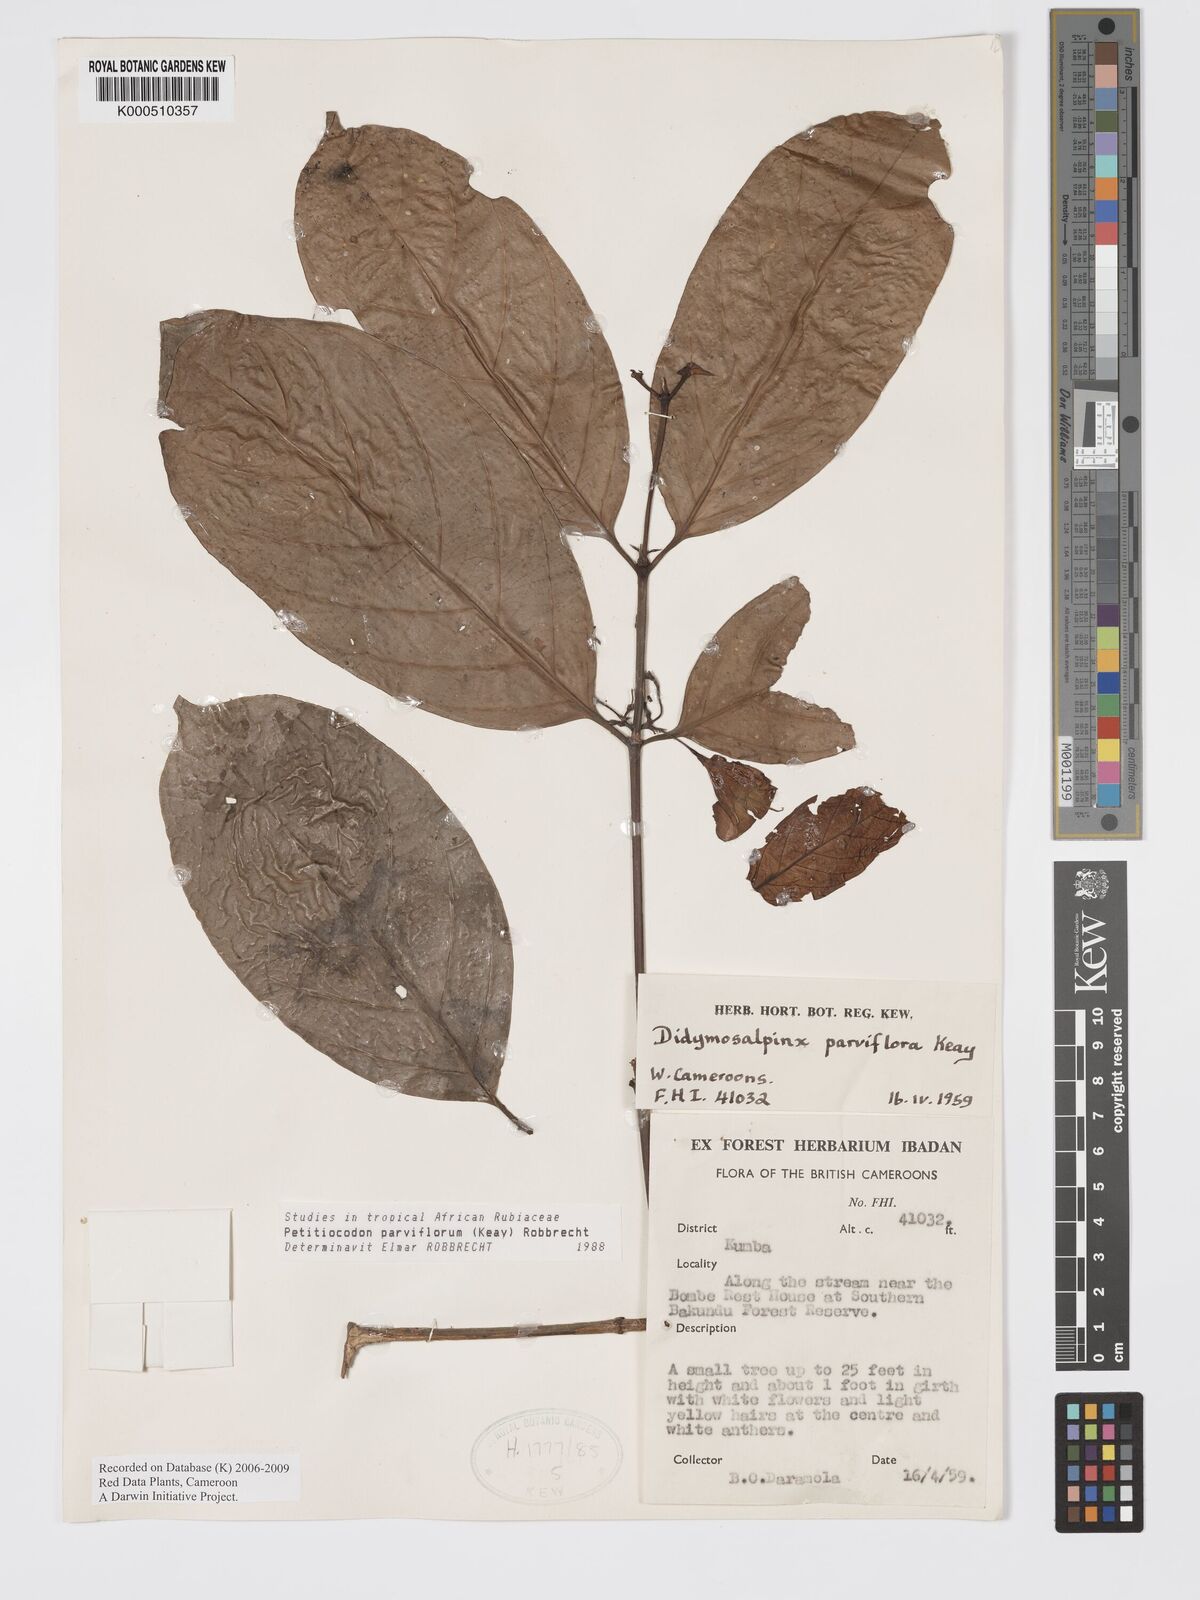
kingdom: Plantae
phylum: Tracheophyta
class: Magnoliopsida
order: Gentianales
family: Rubiaceae
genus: Petitiocodon
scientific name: Petitiocodon parviflorum
